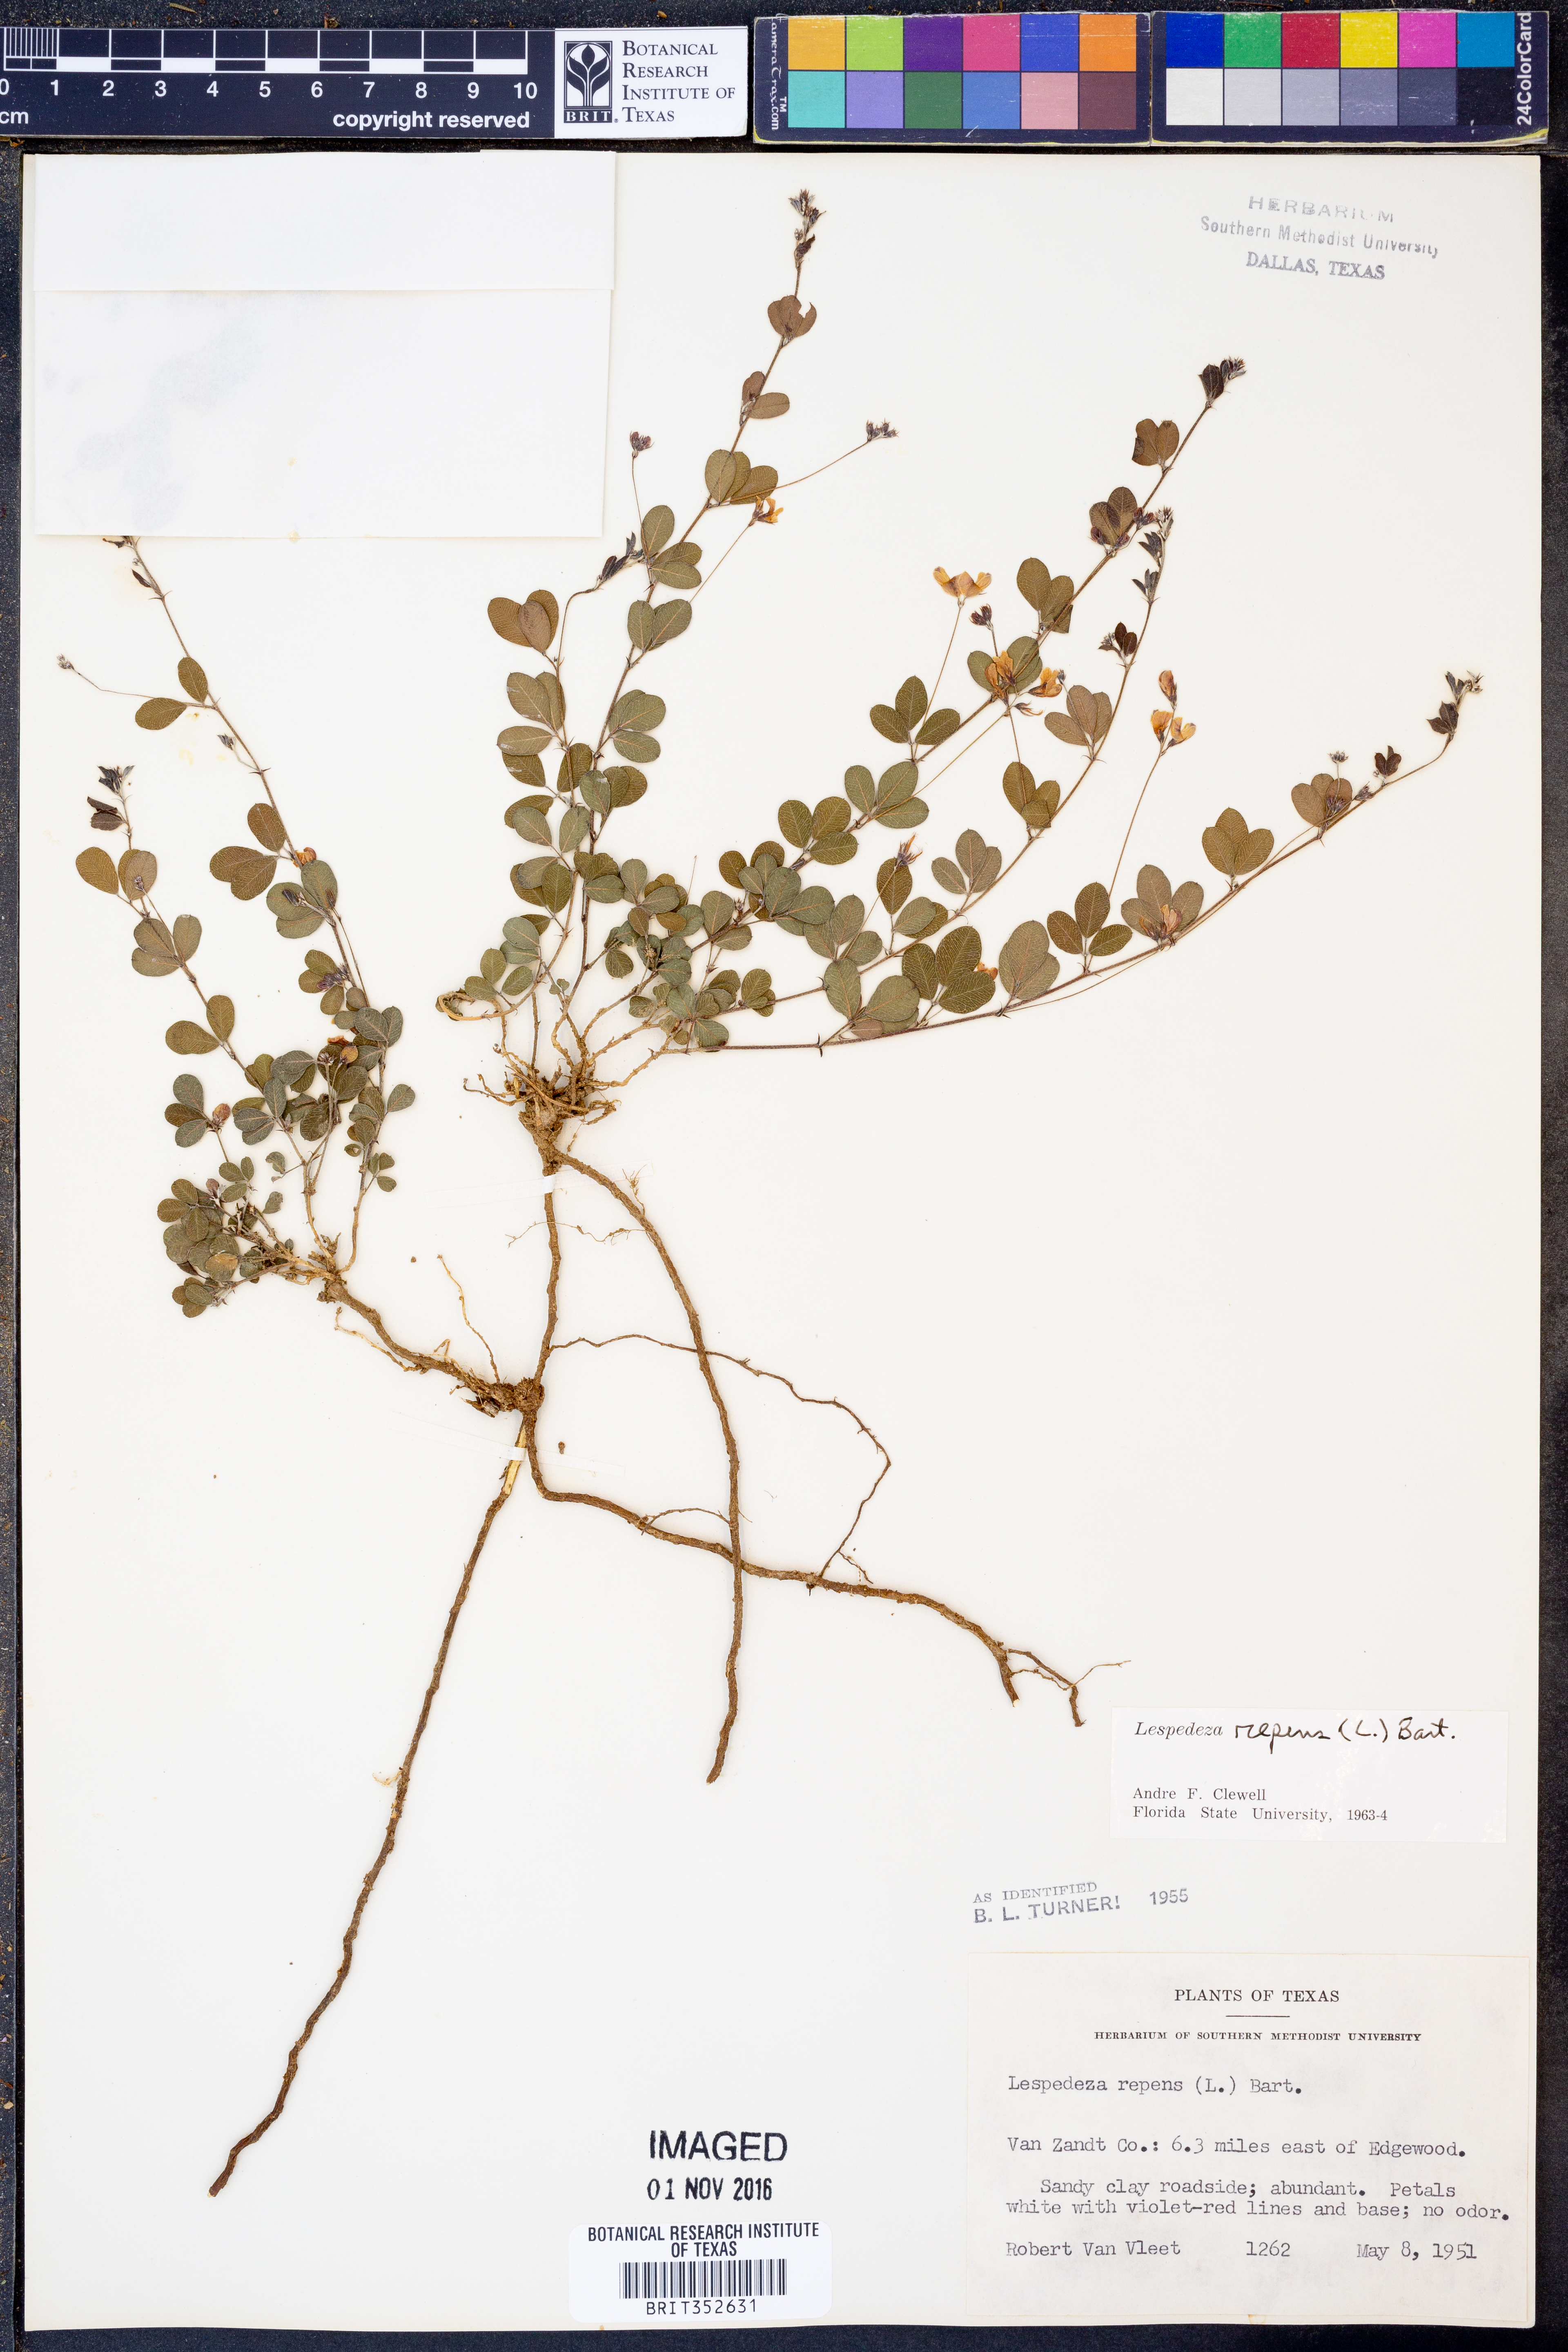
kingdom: Plantae
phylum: Tracheophyta
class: Magnoliopsida
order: Fabales
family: Fabaceae
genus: Lespedeza
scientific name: Lespedeza repens
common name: Creeping bush-clover
